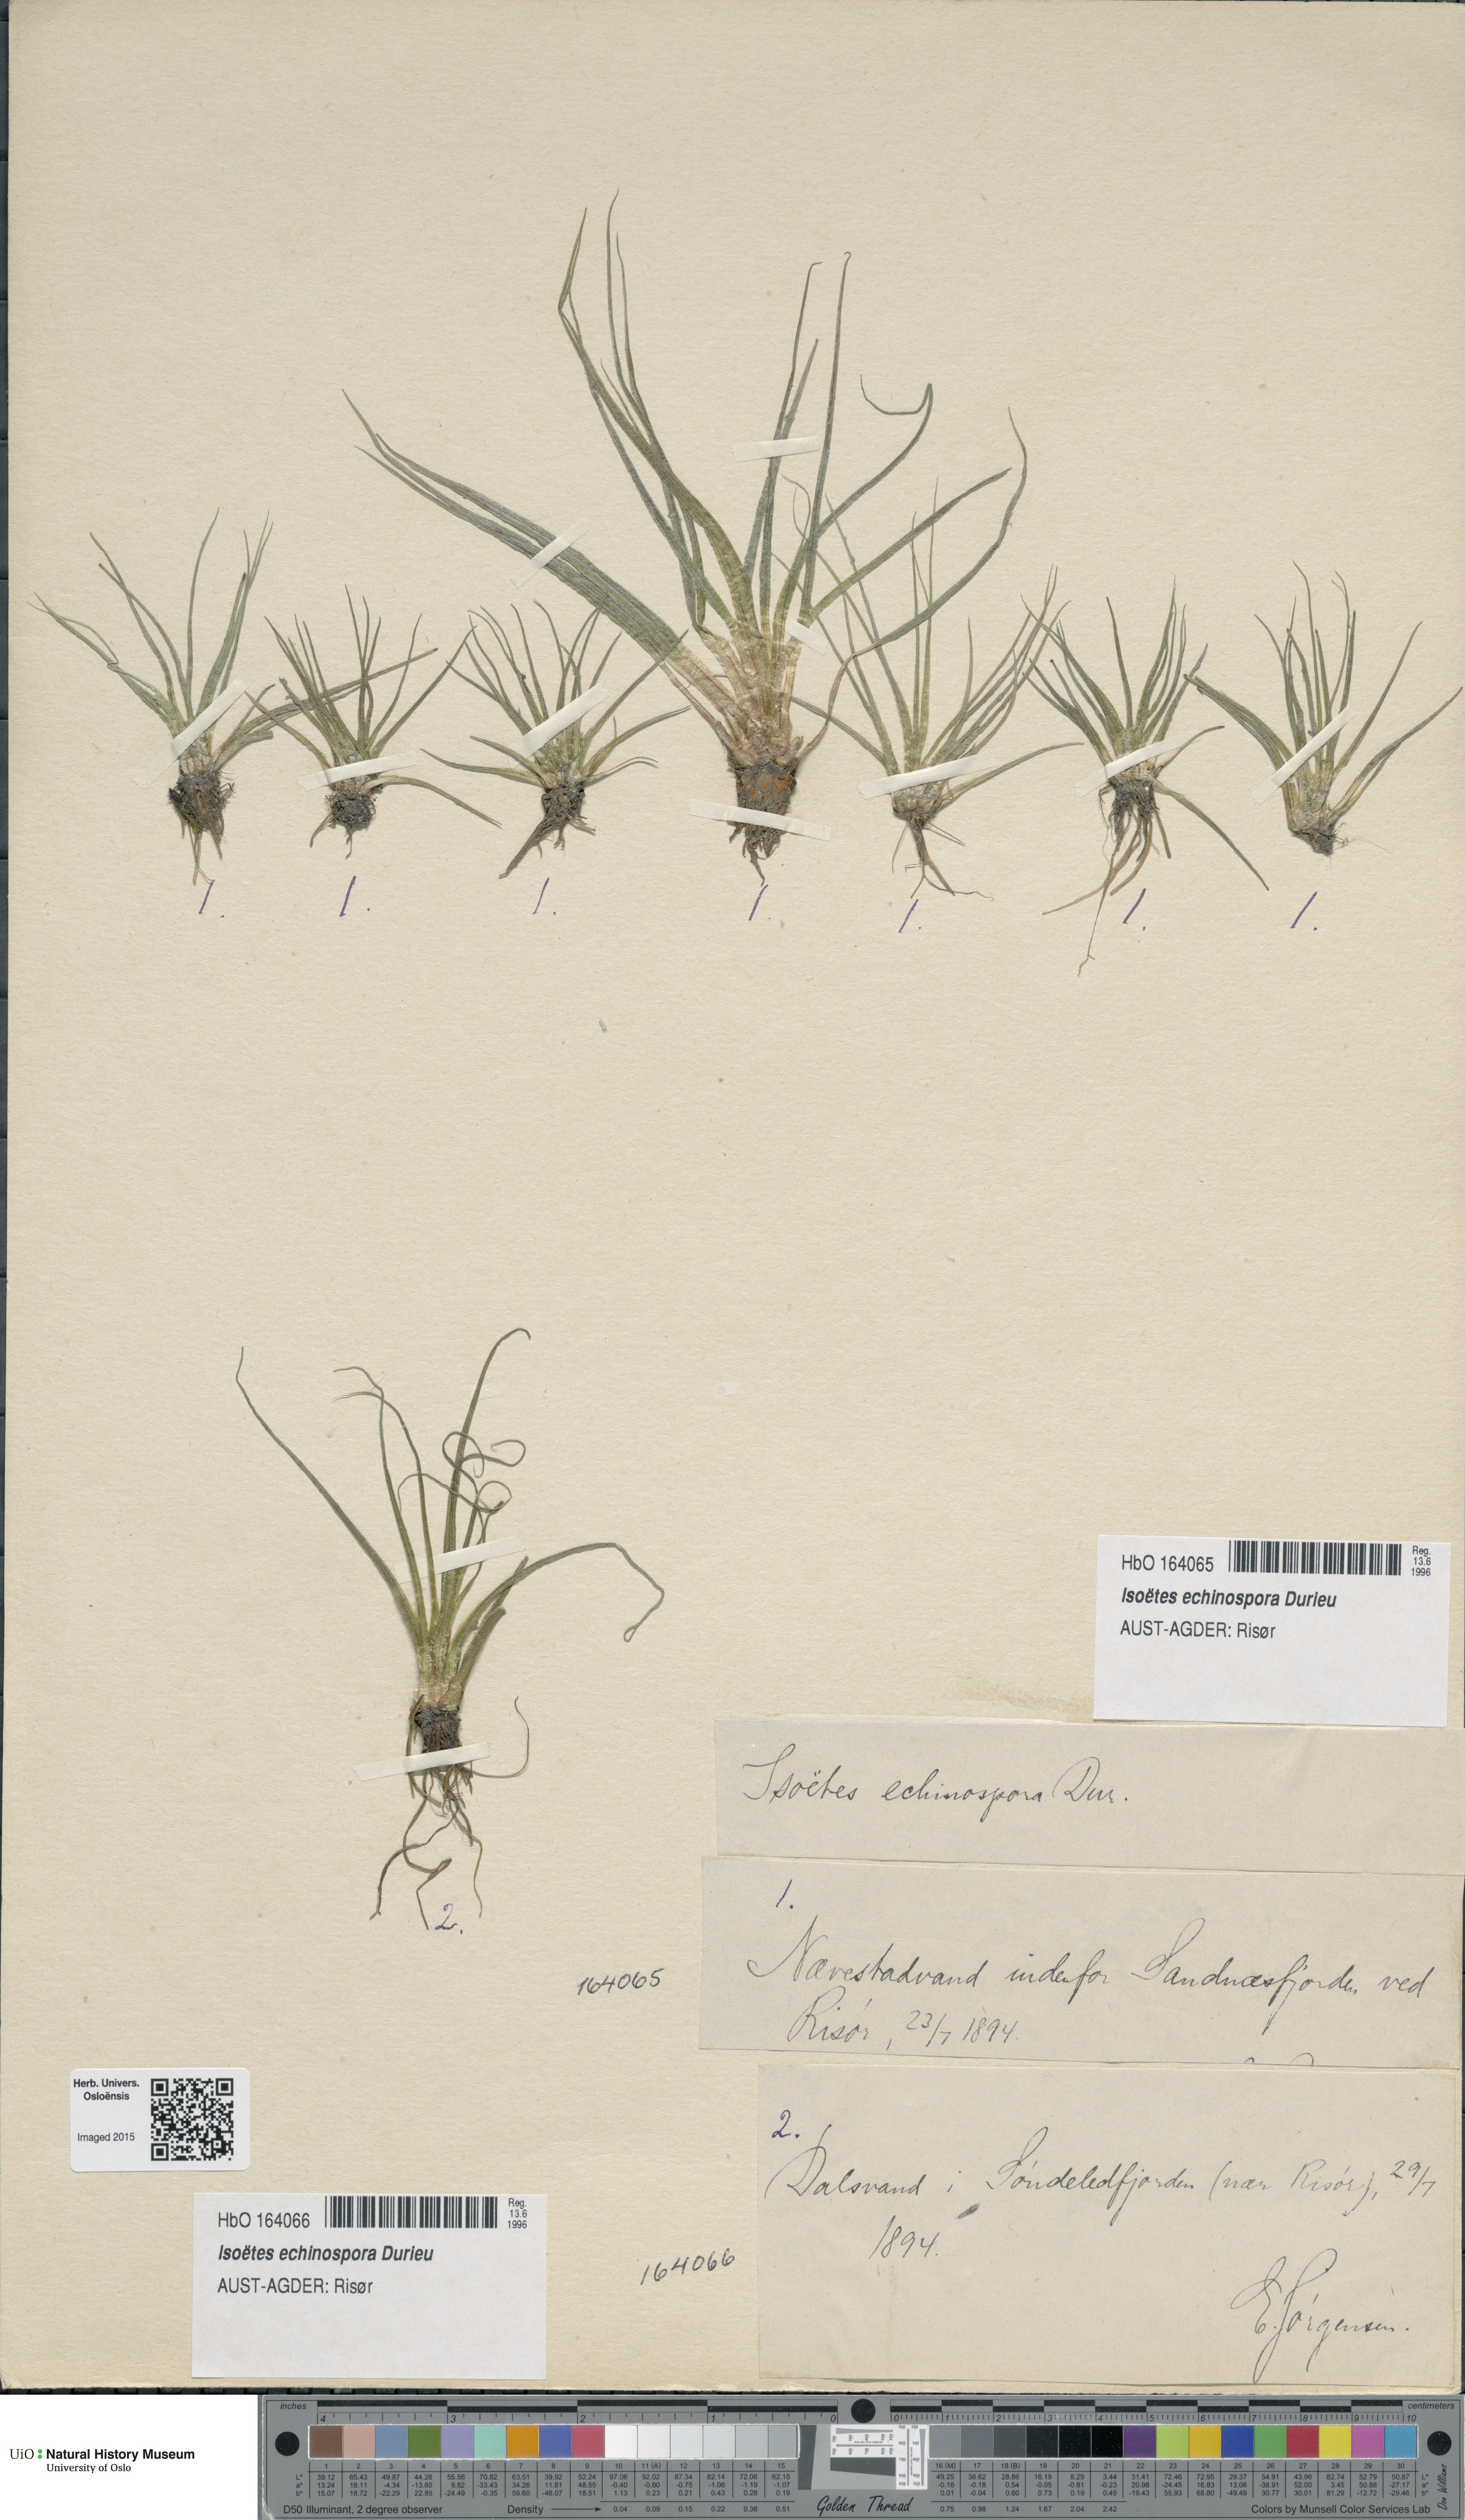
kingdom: Plantae
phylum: Tracheophyta
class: Lycopodiopsida
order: Isoetales
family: Isoetaceae
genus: Isoetes
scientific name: Isoetes echinospora
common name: Spring quillwort
